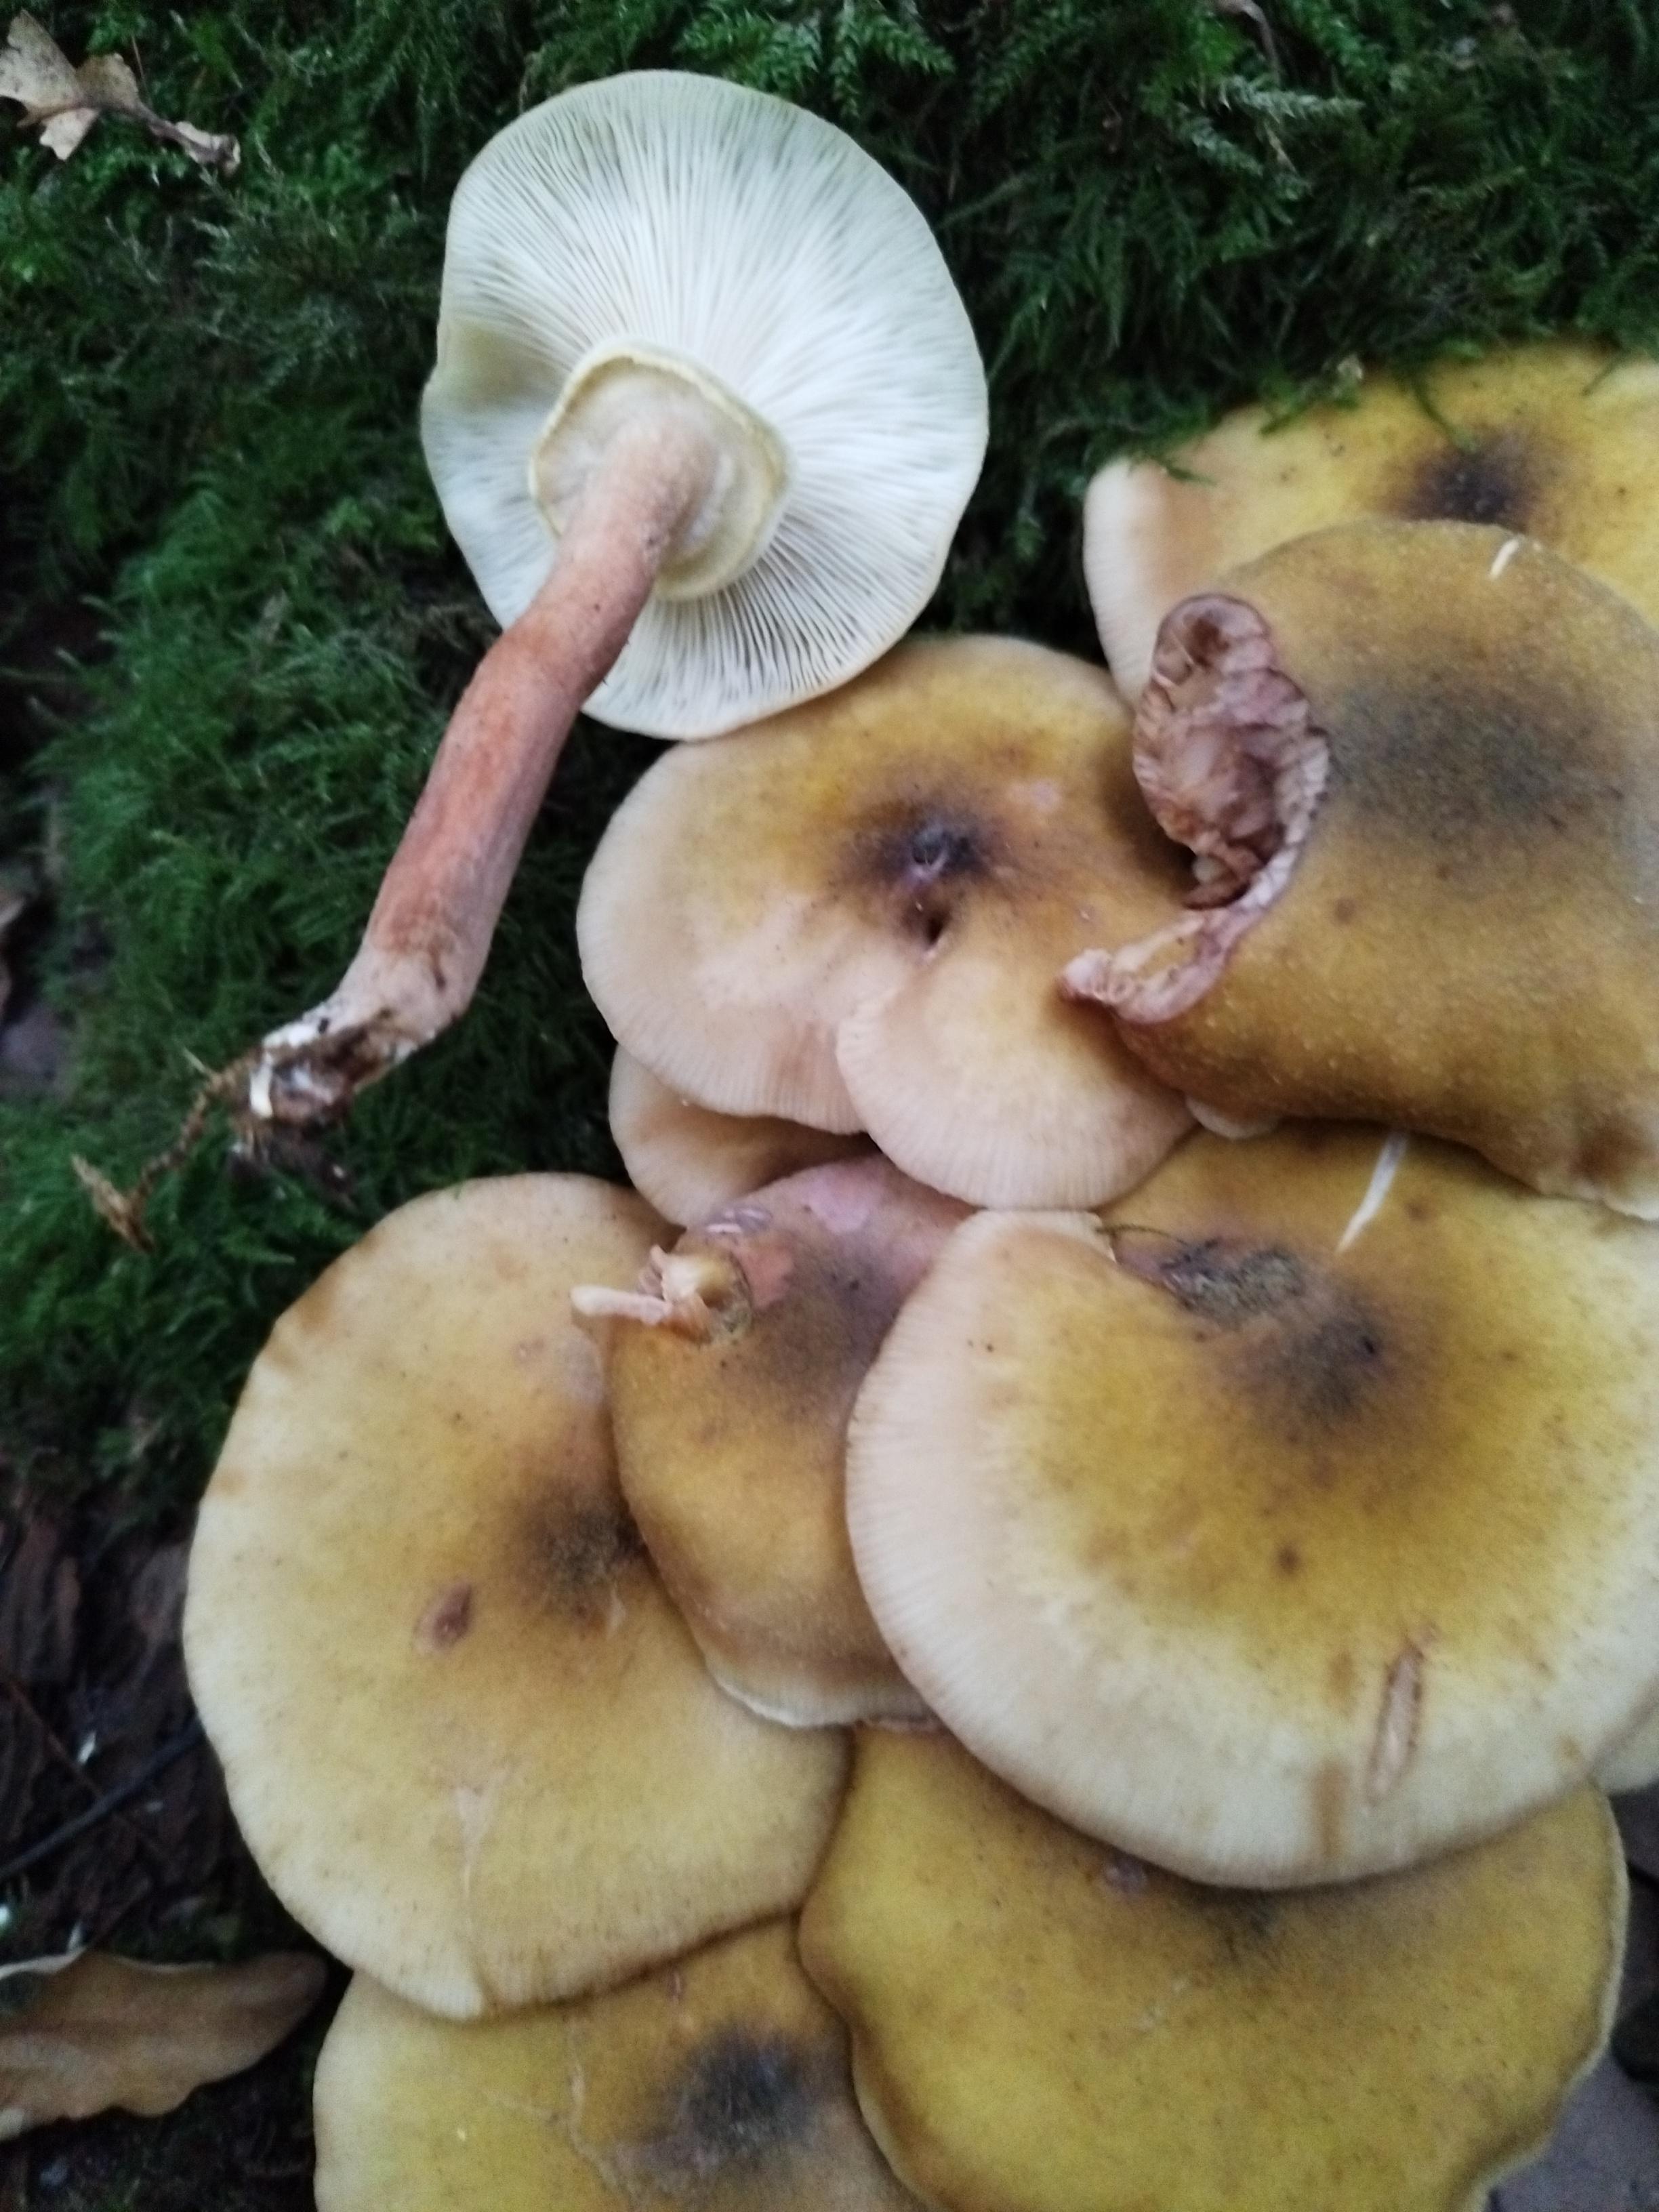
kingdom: Fungi
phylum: Basidiomycota
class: Agaricomycetes
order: Agaricales
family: Physalacriaceae
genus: Armillaria
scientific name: Armillaria mellea
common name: ægte honningsvamp
